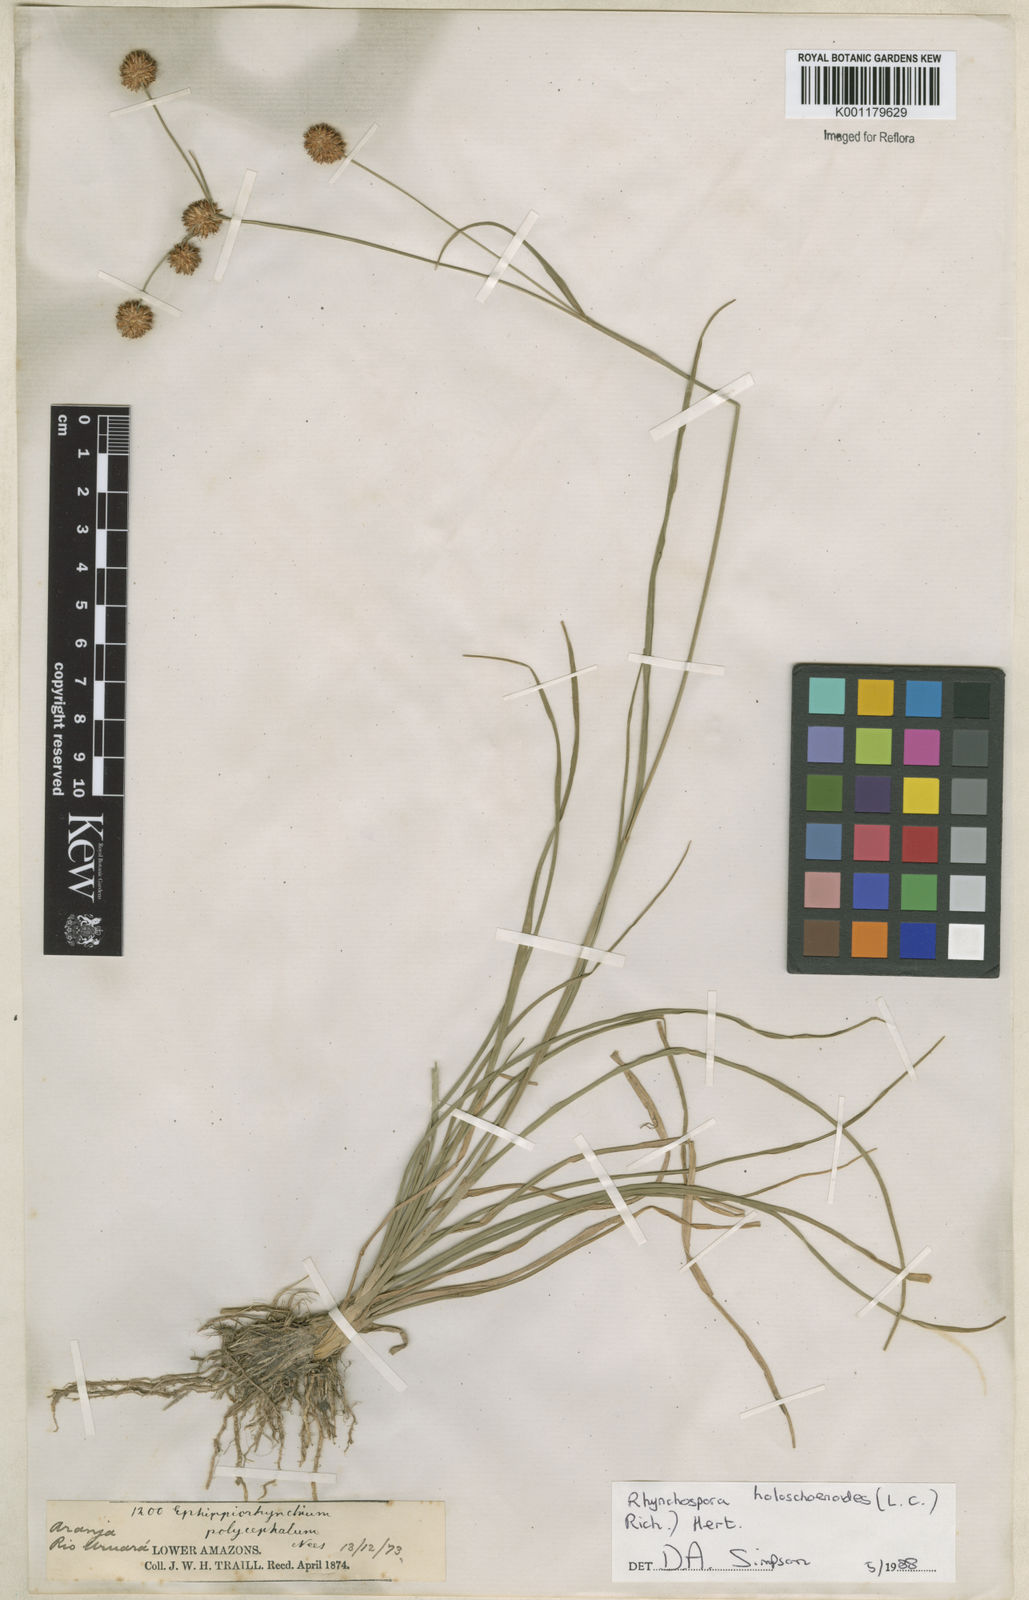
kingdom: Plantae
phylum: Tracheophyta
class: Liliopsida
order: Poales
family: Cyperaceae
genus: Rhynchospora
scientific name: Rhynchospora holoschoenoides
